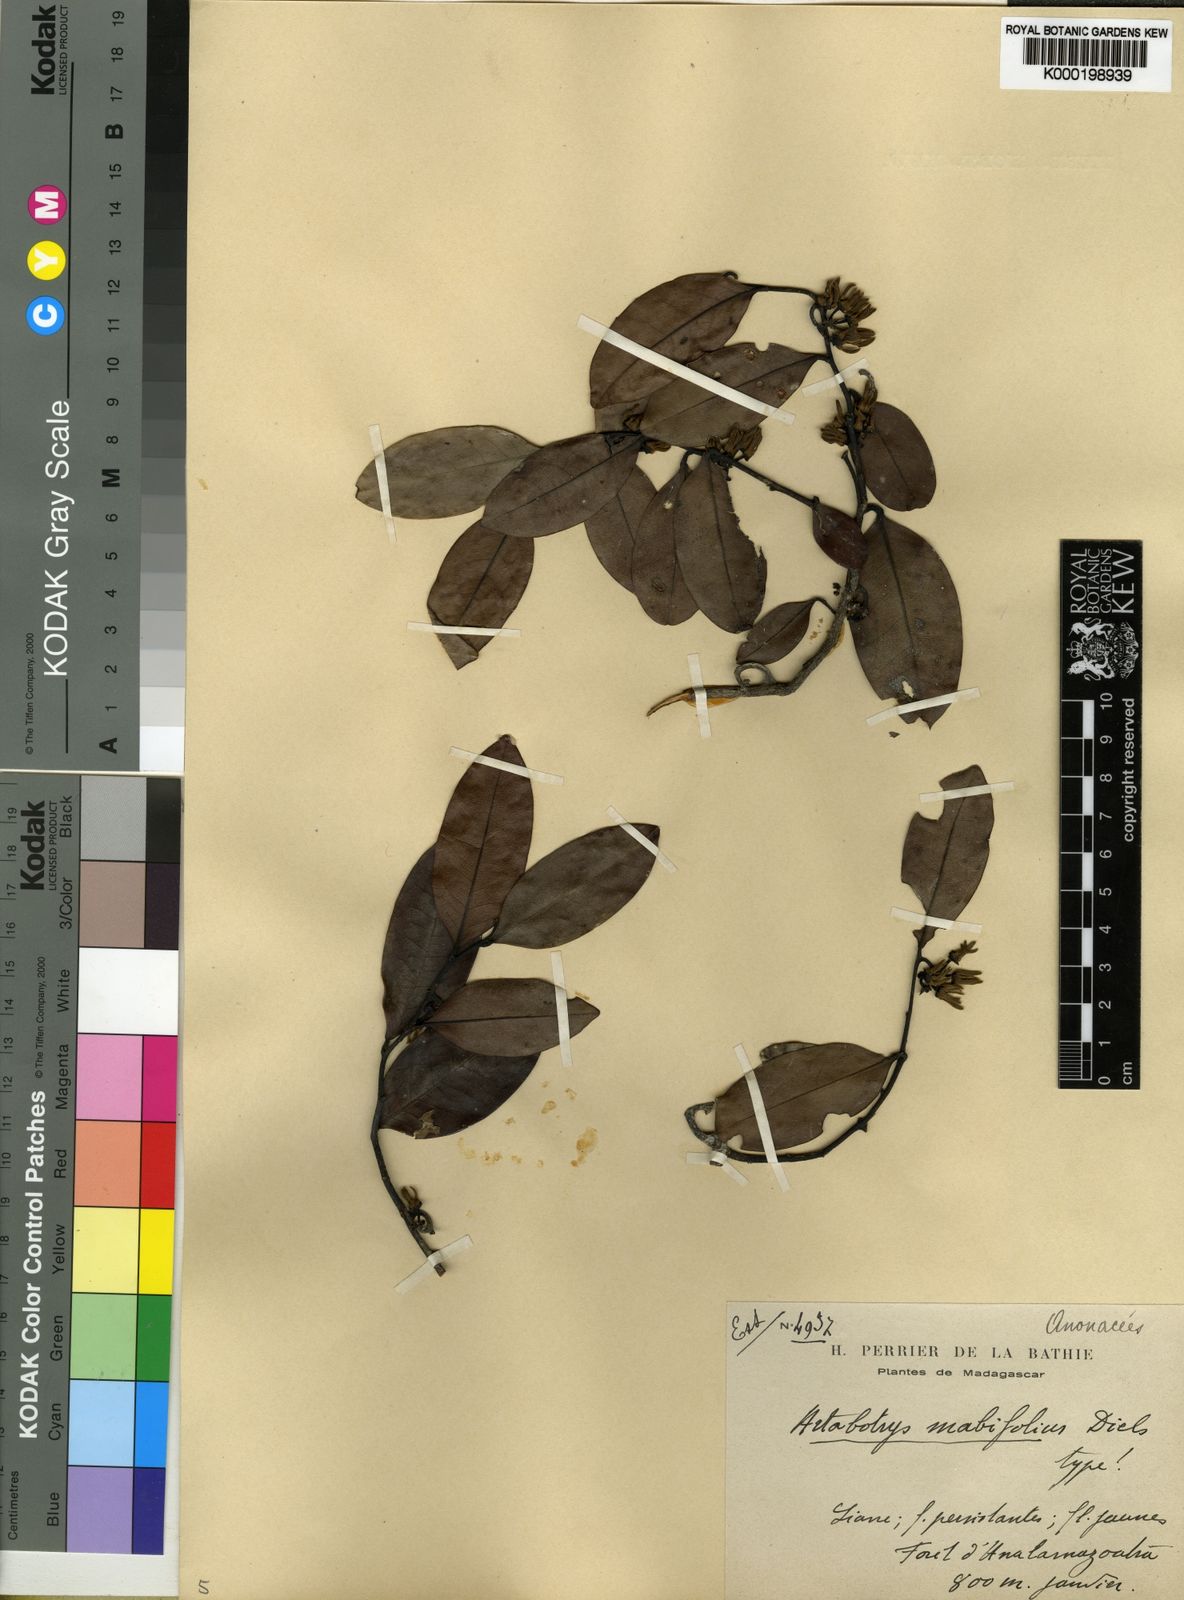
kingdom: Plantae
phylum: Tracheophyta
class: Magnoliopsida
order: Magnoliales
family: Annonaceae
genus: Artabotrys
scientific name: Artabotrys monteiroae
